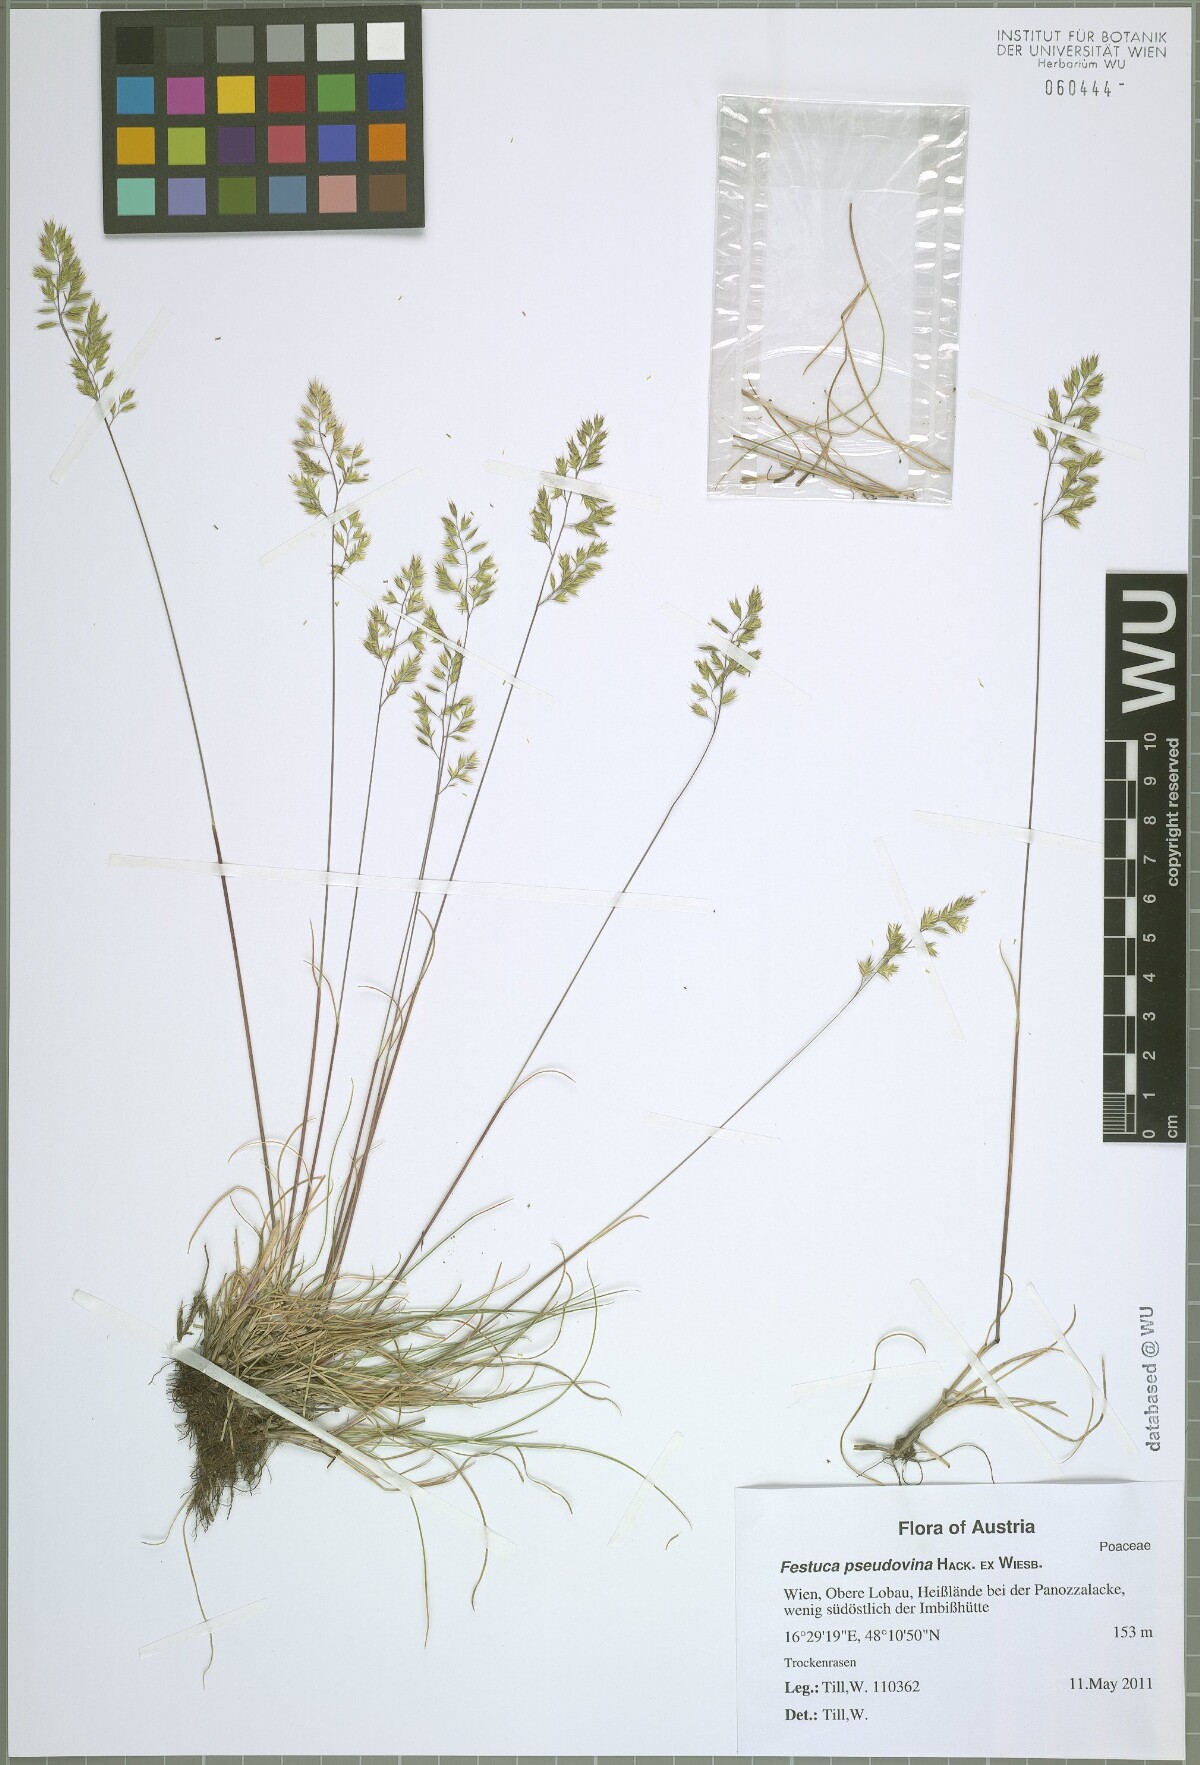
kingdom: Plantae
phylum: Tracheophyta
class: Liliopsida
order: Poales
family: Poaceae
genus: Festuca
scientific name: Festuca pulchra
